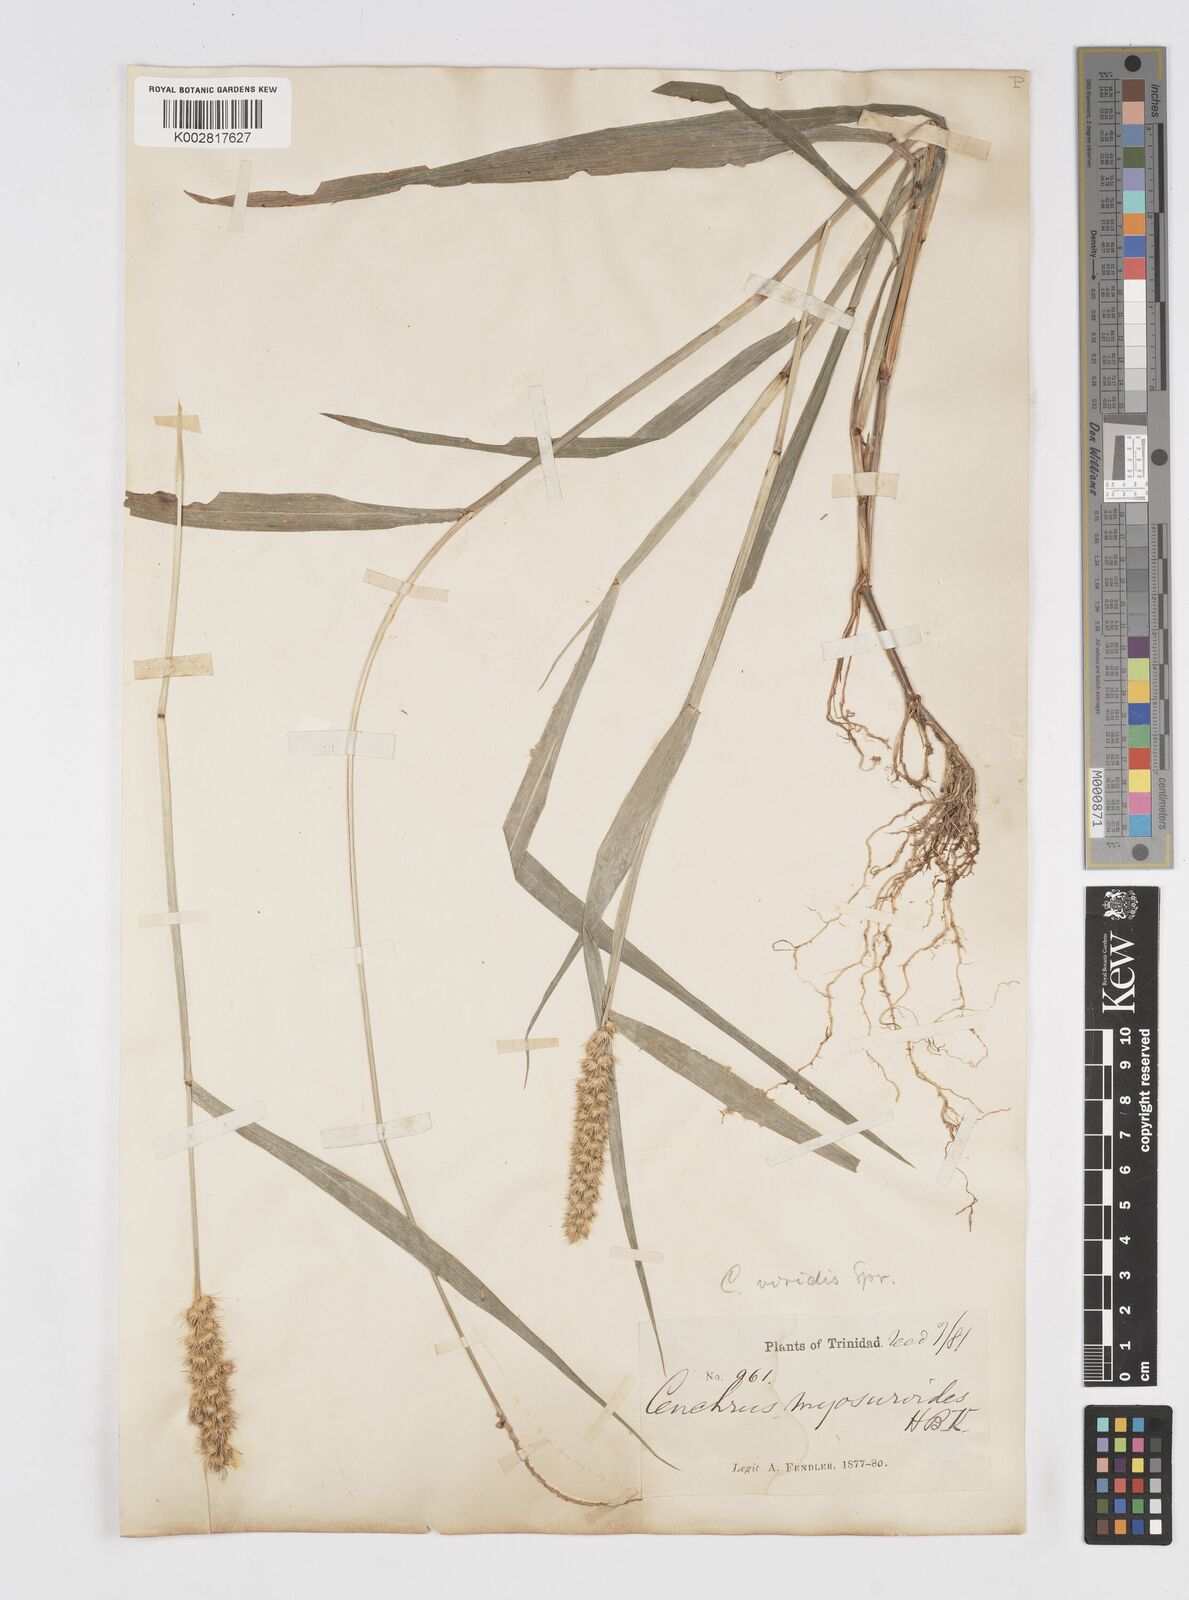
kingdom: Plantae
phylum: Tracheophyta
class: Liliopsida
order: Poales
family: Poaceae
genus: Cenchrus
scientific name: Cenchrus brownii
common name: Slim-bristle sandbur
